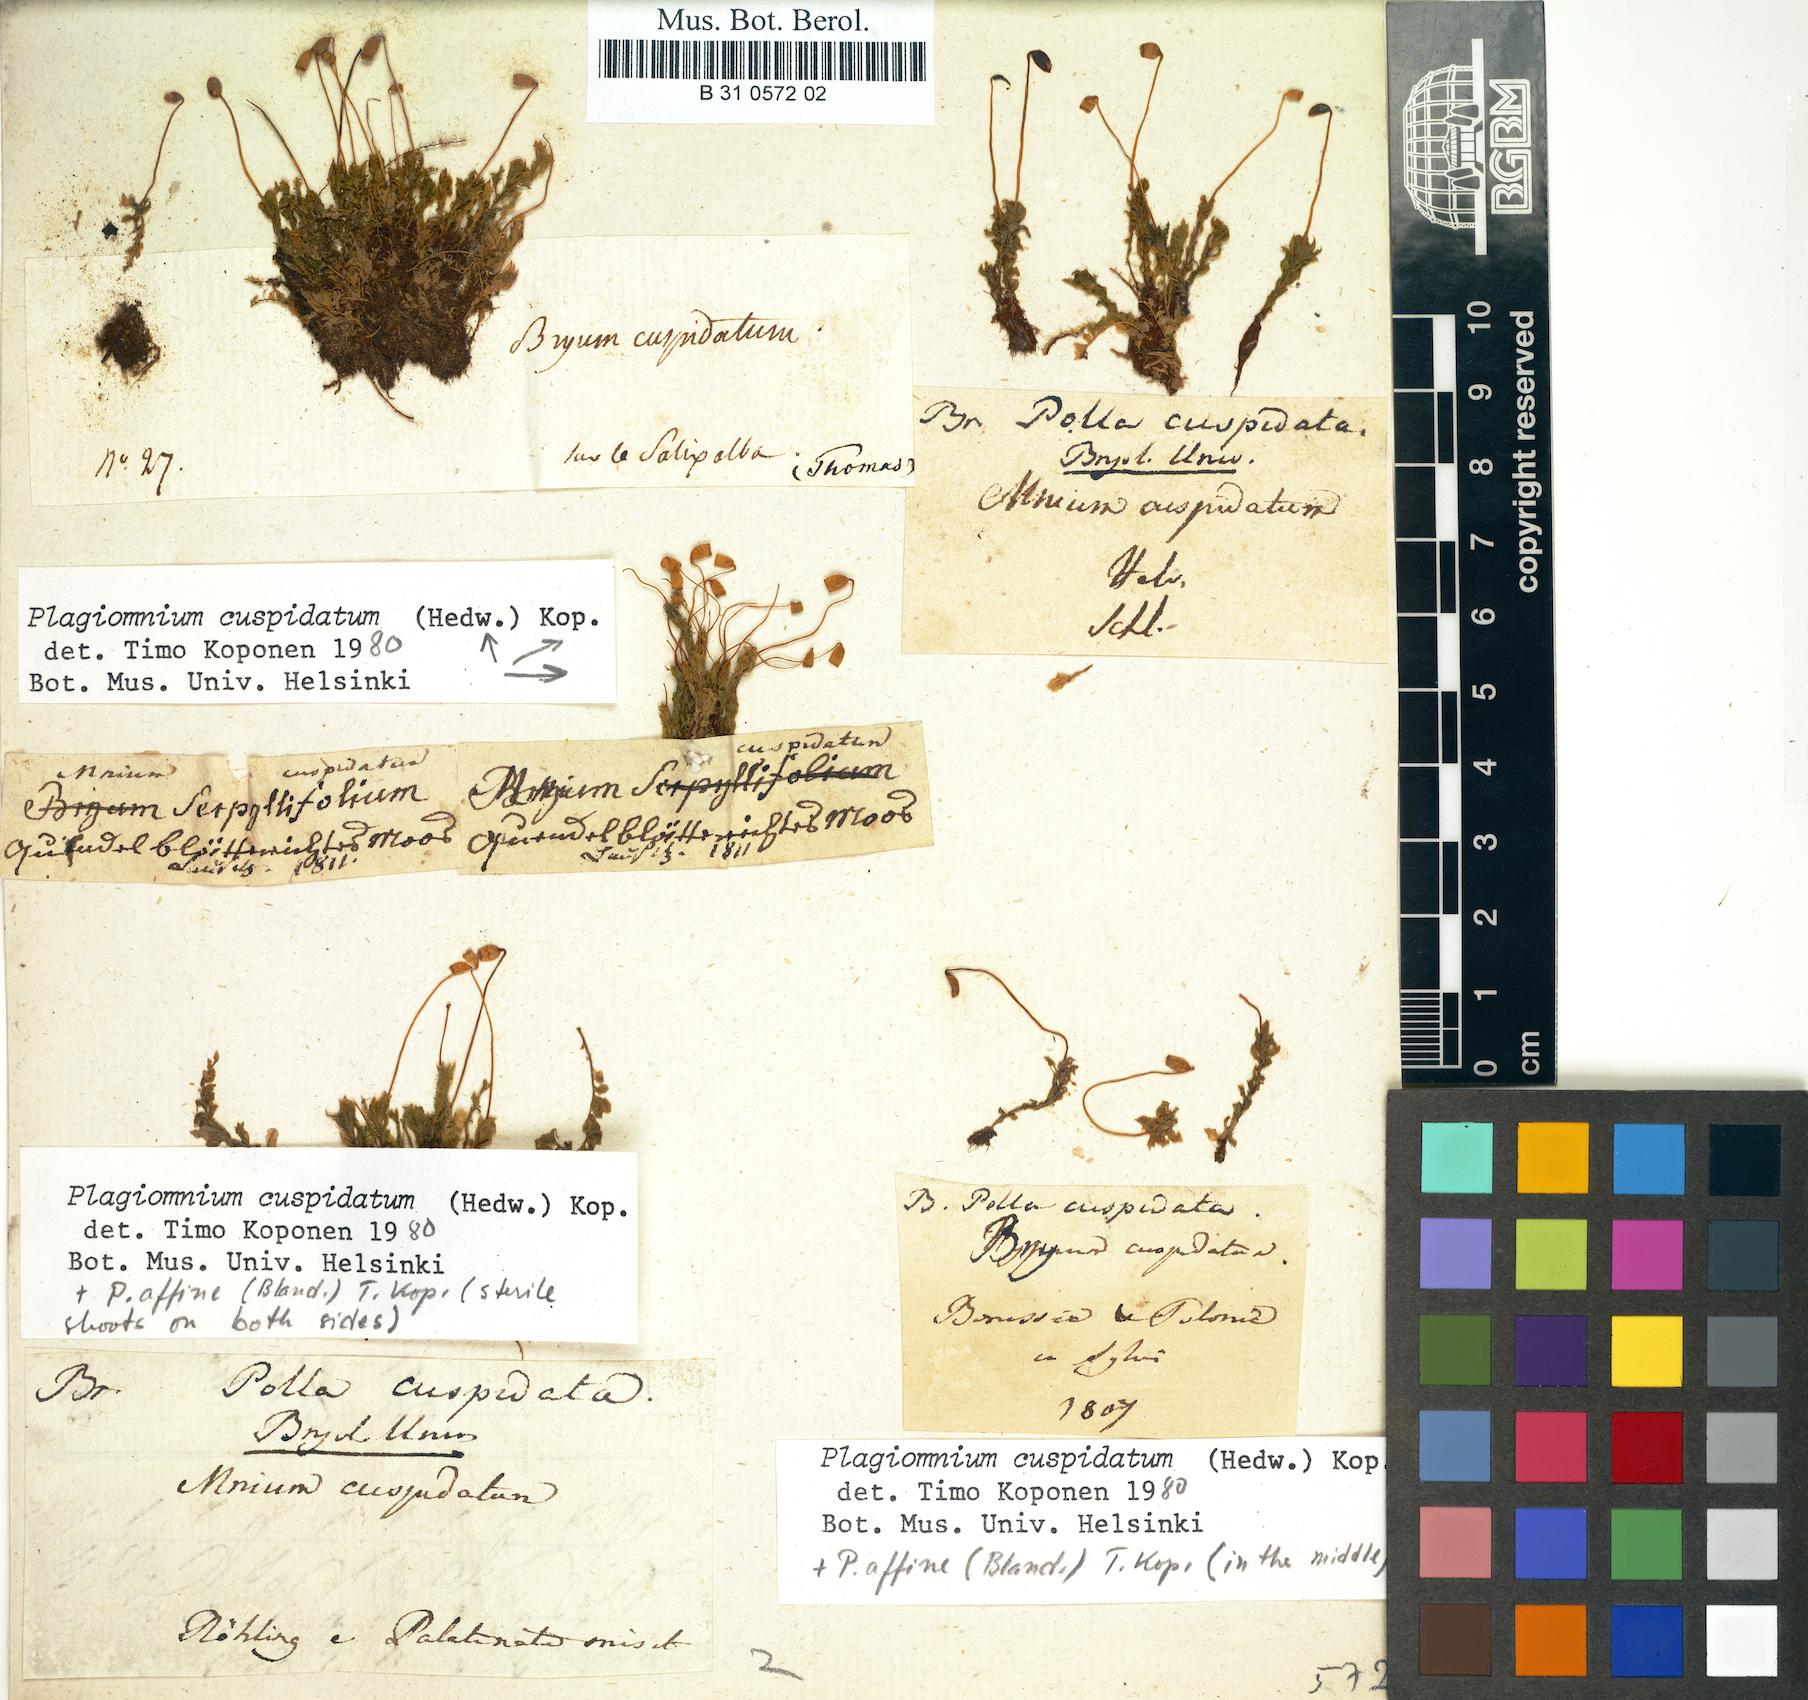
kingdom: Plantae
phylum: Bryophyta
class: Bryopsida
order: Bryales
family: Mniaceae
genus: Plagiomnium
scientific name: Plagiomnium cuspidatum
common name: Woodsy leafy moss
